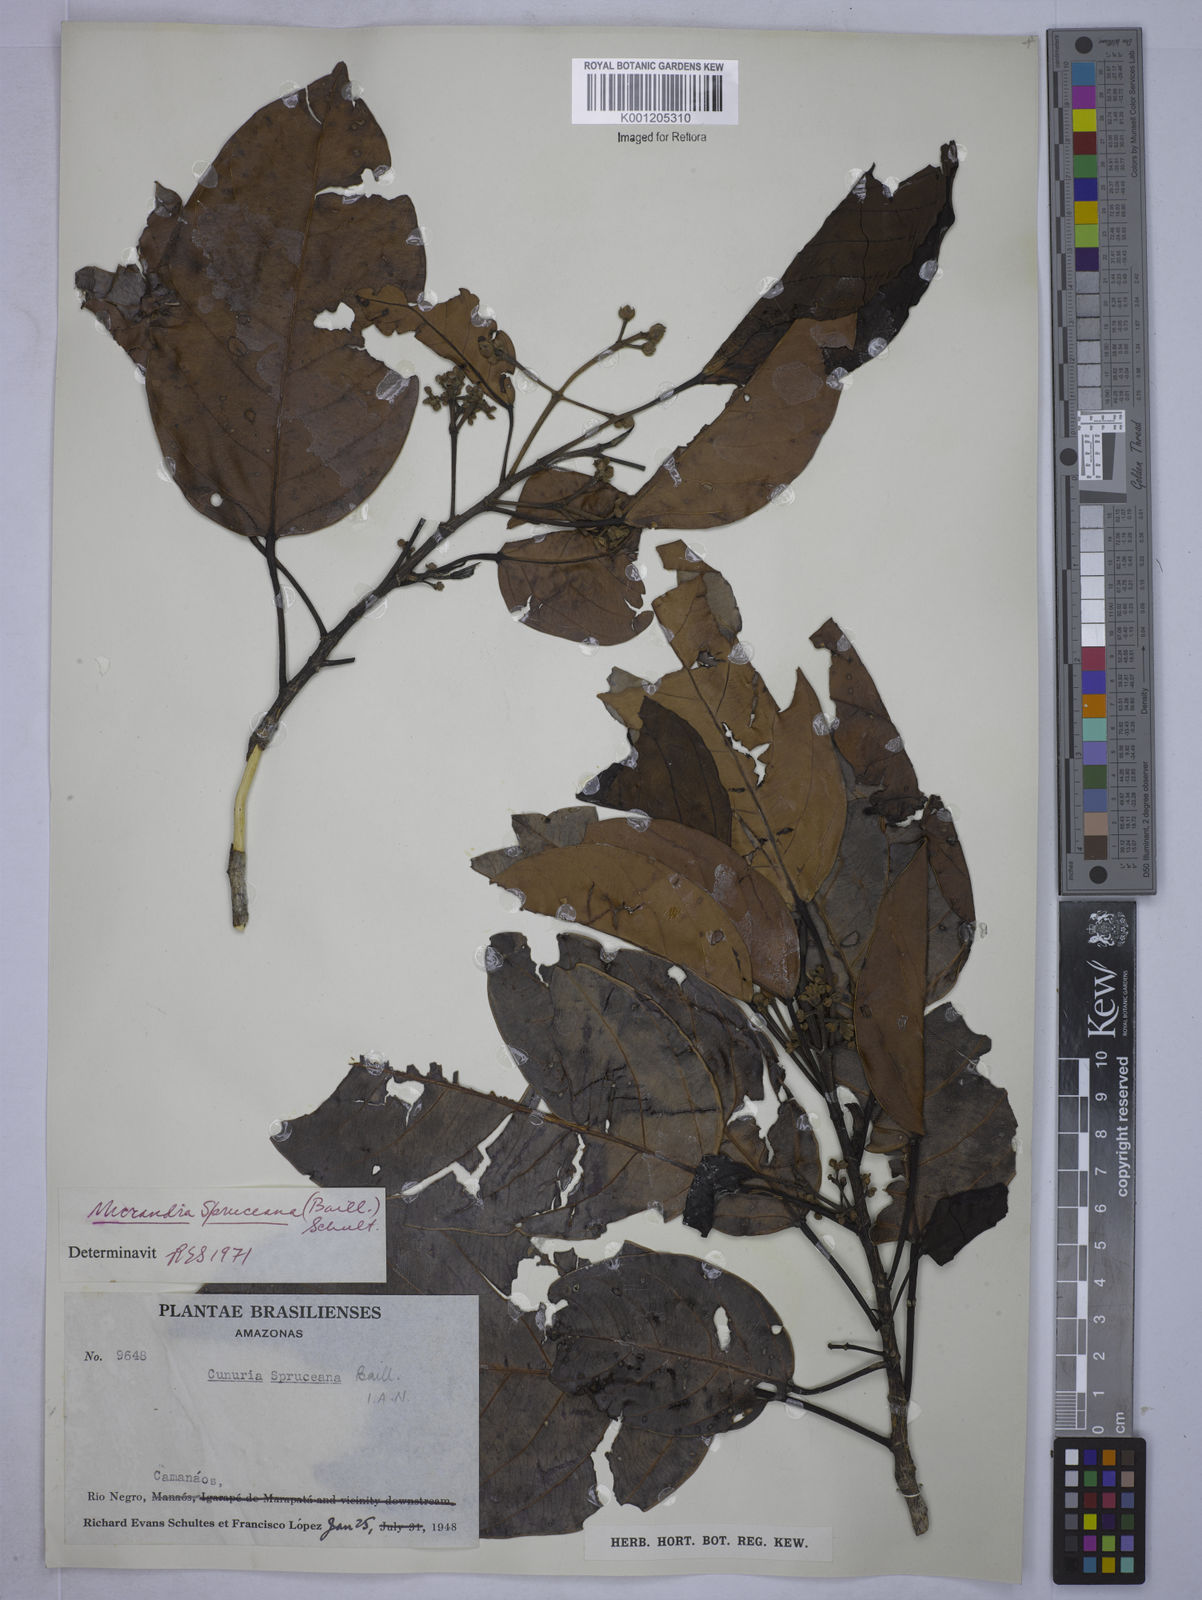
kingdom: Plantae
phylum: Tracheophyta
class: Magnoliopsida
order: Malpighiales
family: Euphorbiaceae
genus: Micrandra
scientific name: Micrandra spruceana
